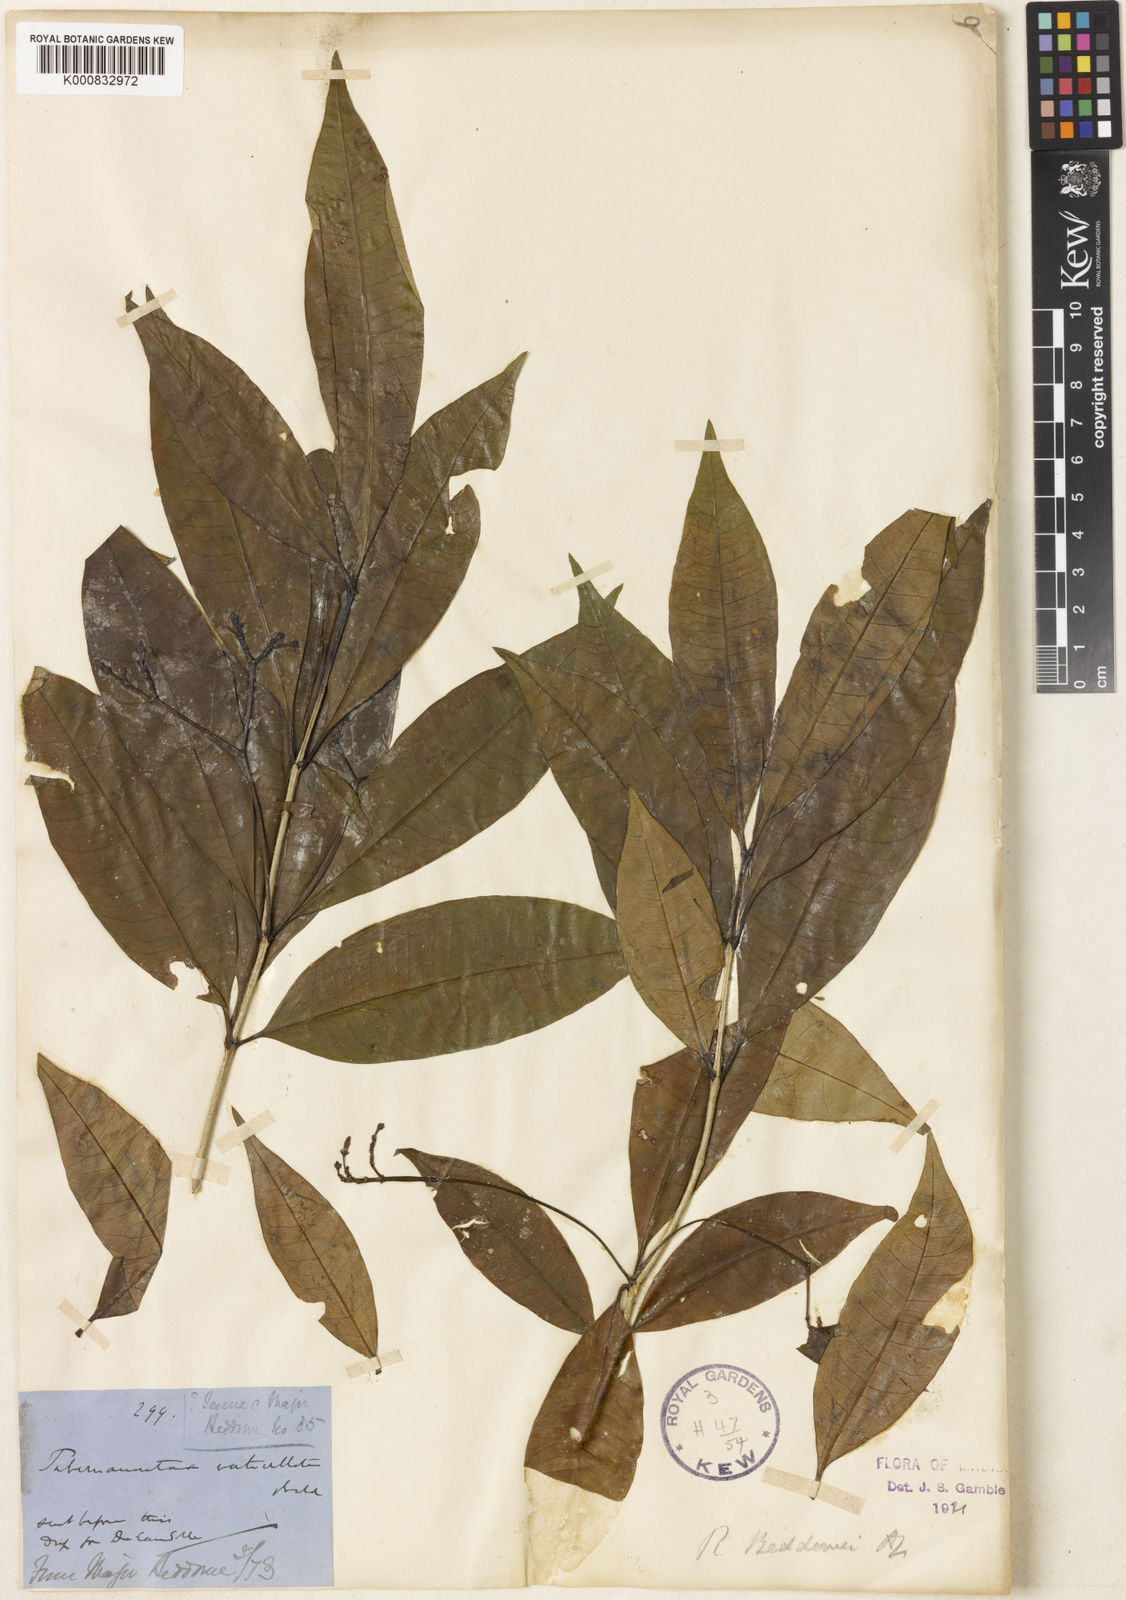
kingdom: Plantae
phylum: Tracheophyta
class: Magnoliopsida
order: Gentianales
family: Apocynaceae
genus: Rauvolfia
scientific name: Rauvolfia beddomei
